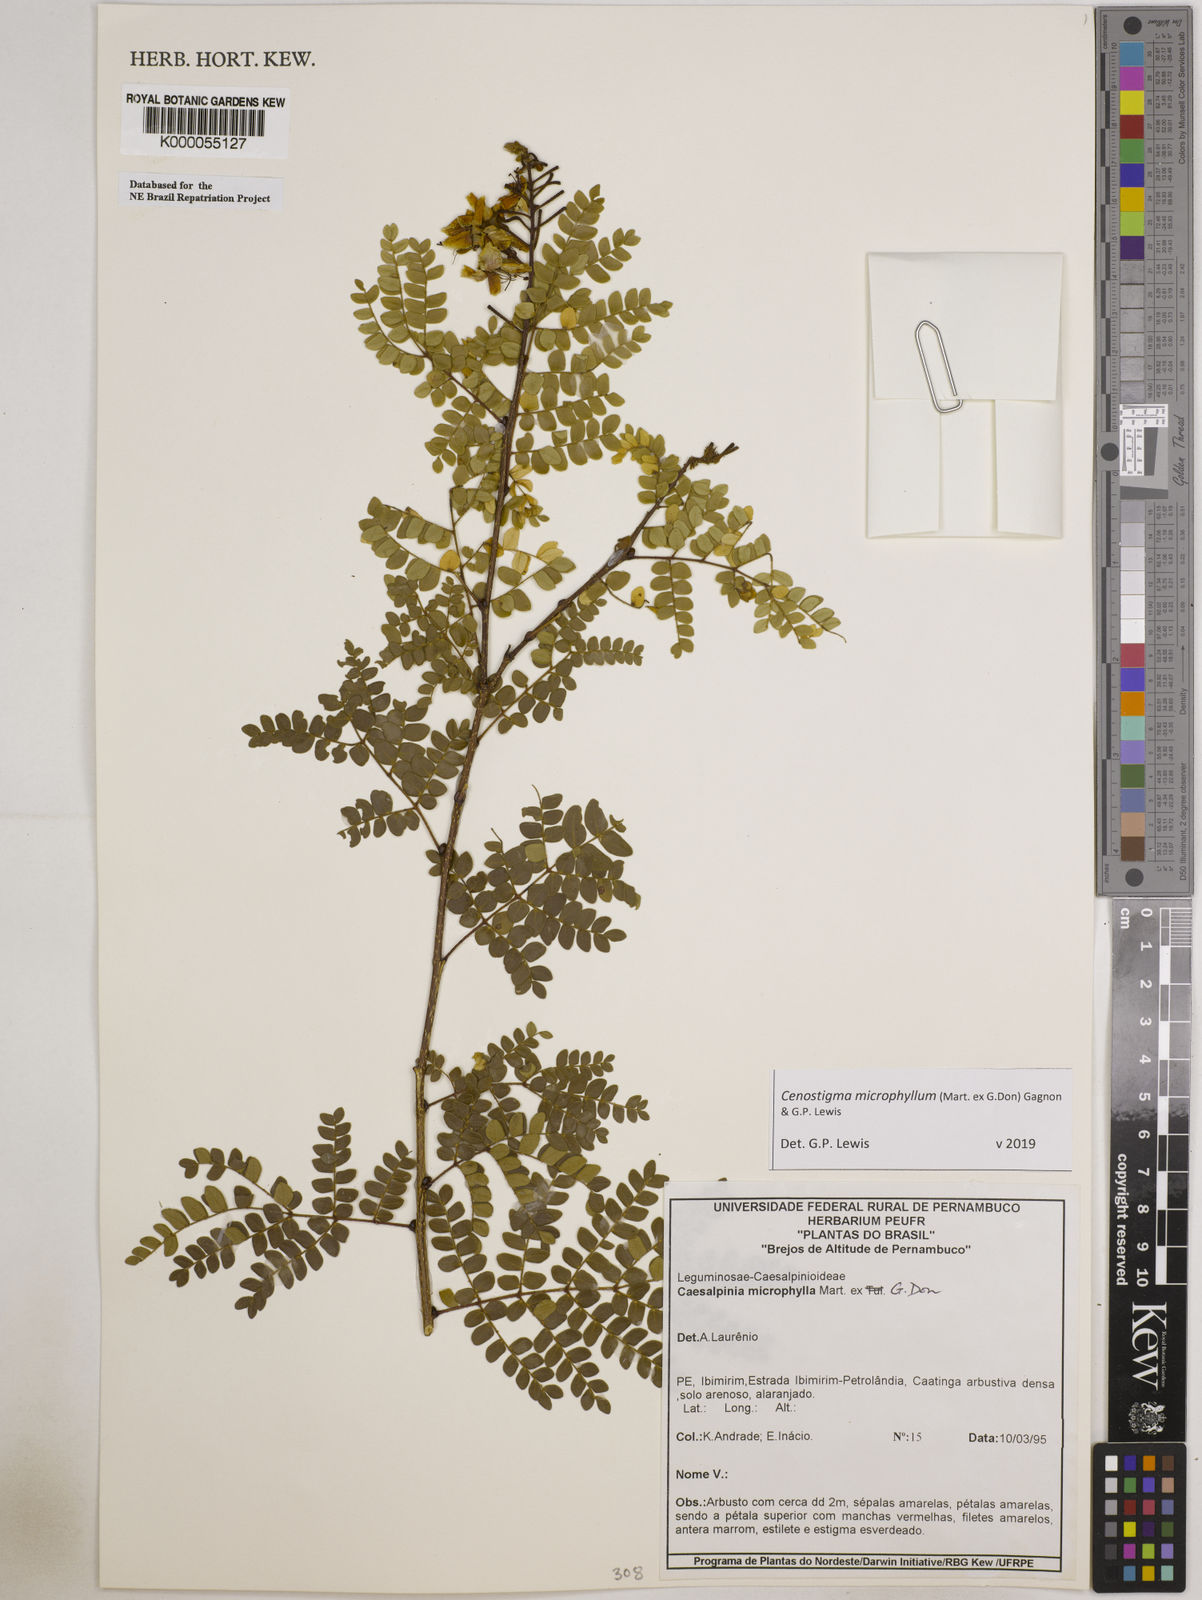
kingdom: Plantae
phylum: Tracheophyta
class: Magnoliopsida
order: Fabales
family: Fabaceae
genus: Cenostigma
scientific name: Cenostigma microphyllum
